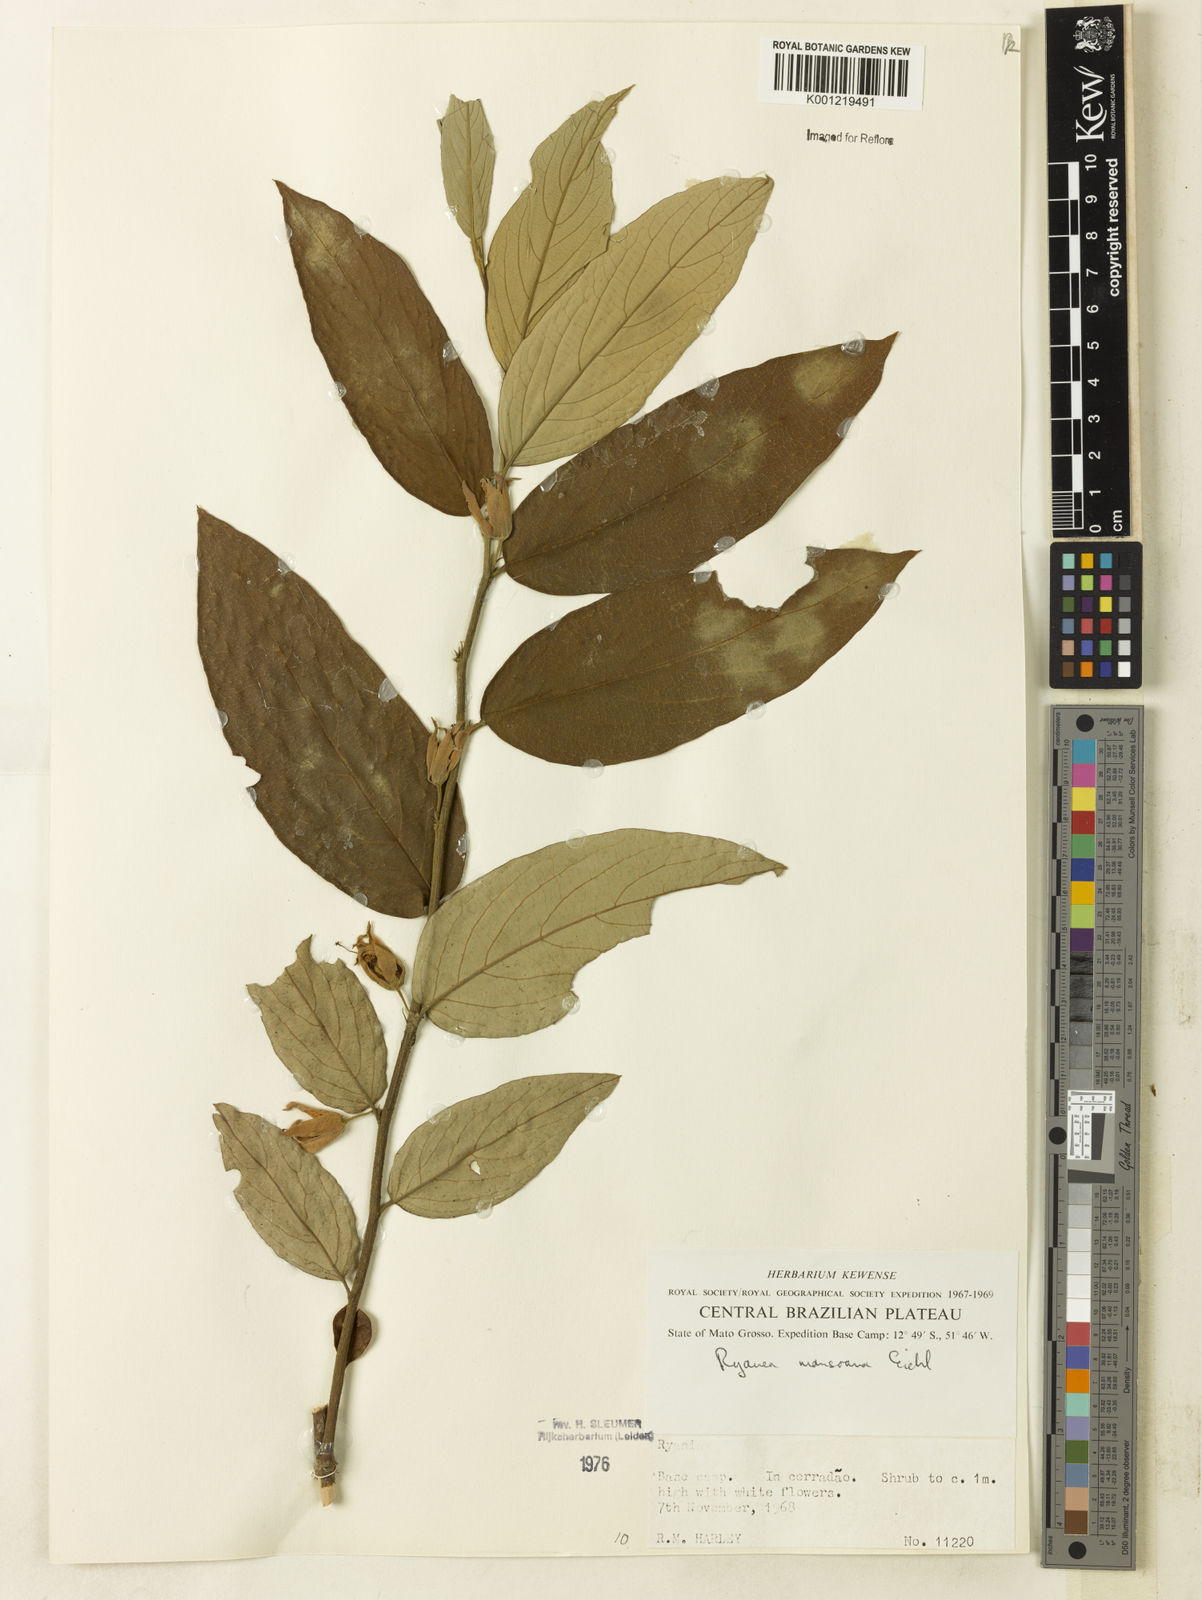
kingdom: Plantae
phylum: Tracheophyta
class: Magnoliopsida
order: Malpighiales
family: Salicaceae
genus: Ryania
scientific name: Ryania mansoana
